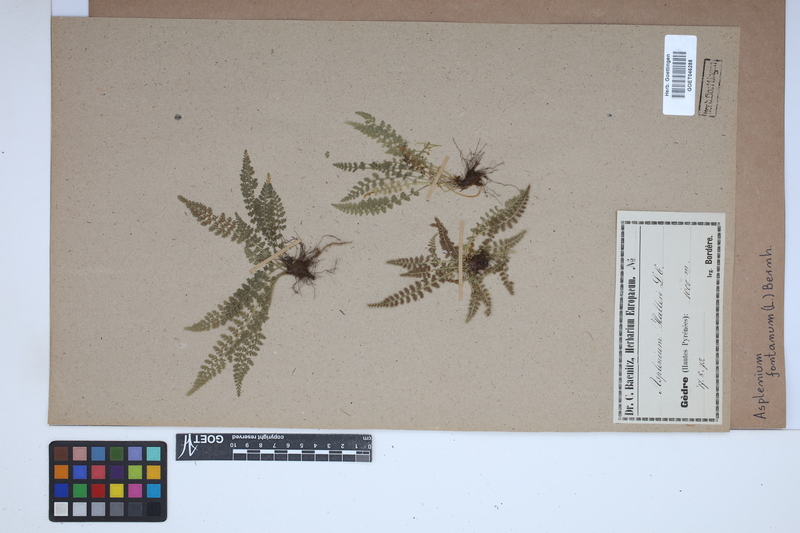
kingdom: Plantae
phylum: Tracheophyta
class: Polypodiopsida
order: Polypodiales
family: Aspleniaceae
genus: Asplenium
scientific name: Asplenium fontanum
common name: Fountain spleenwort
